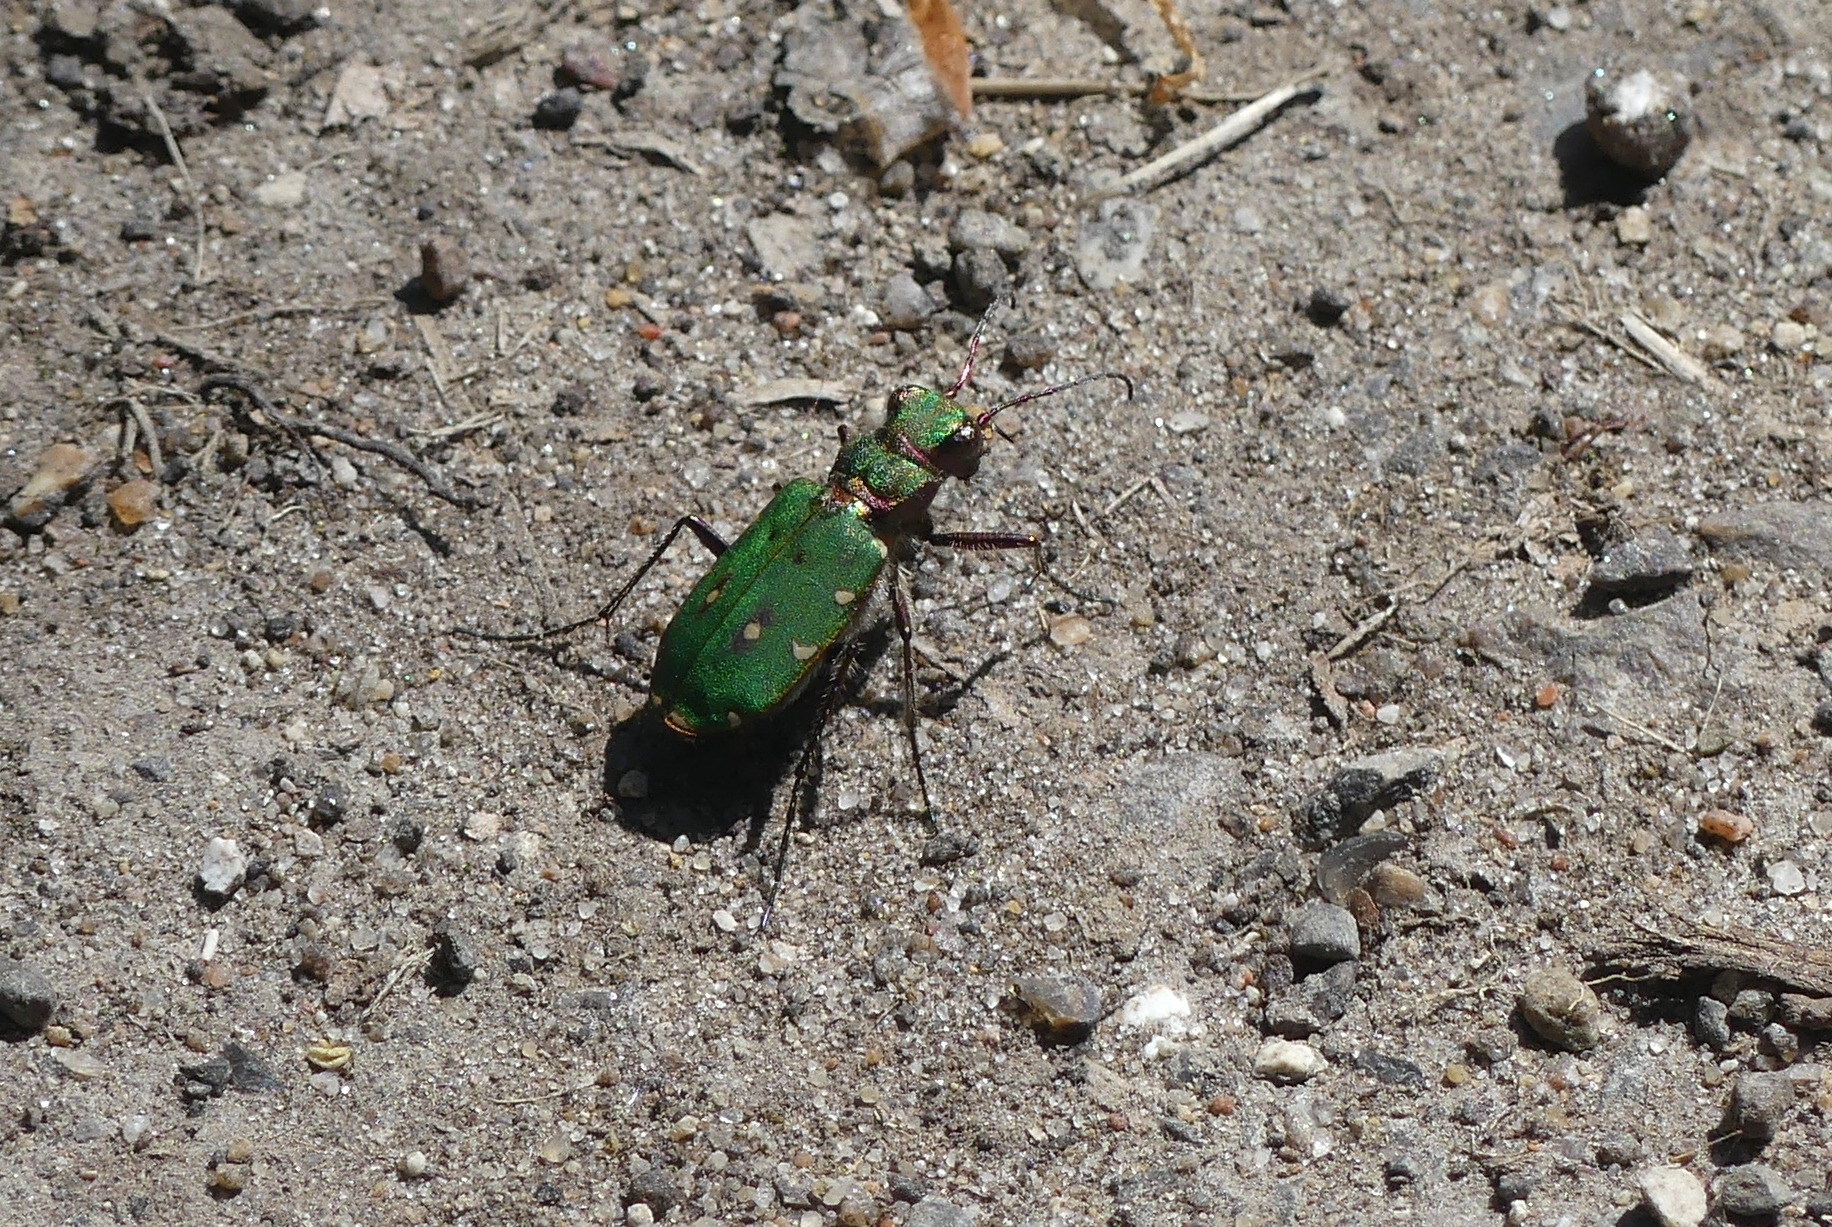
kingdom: Animalia
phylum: Arthropoda
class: Insecta
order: Coleoptera
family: Carabidae
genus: Cicindela
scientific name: Cicindela campestris
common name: Grøn sandspringer
